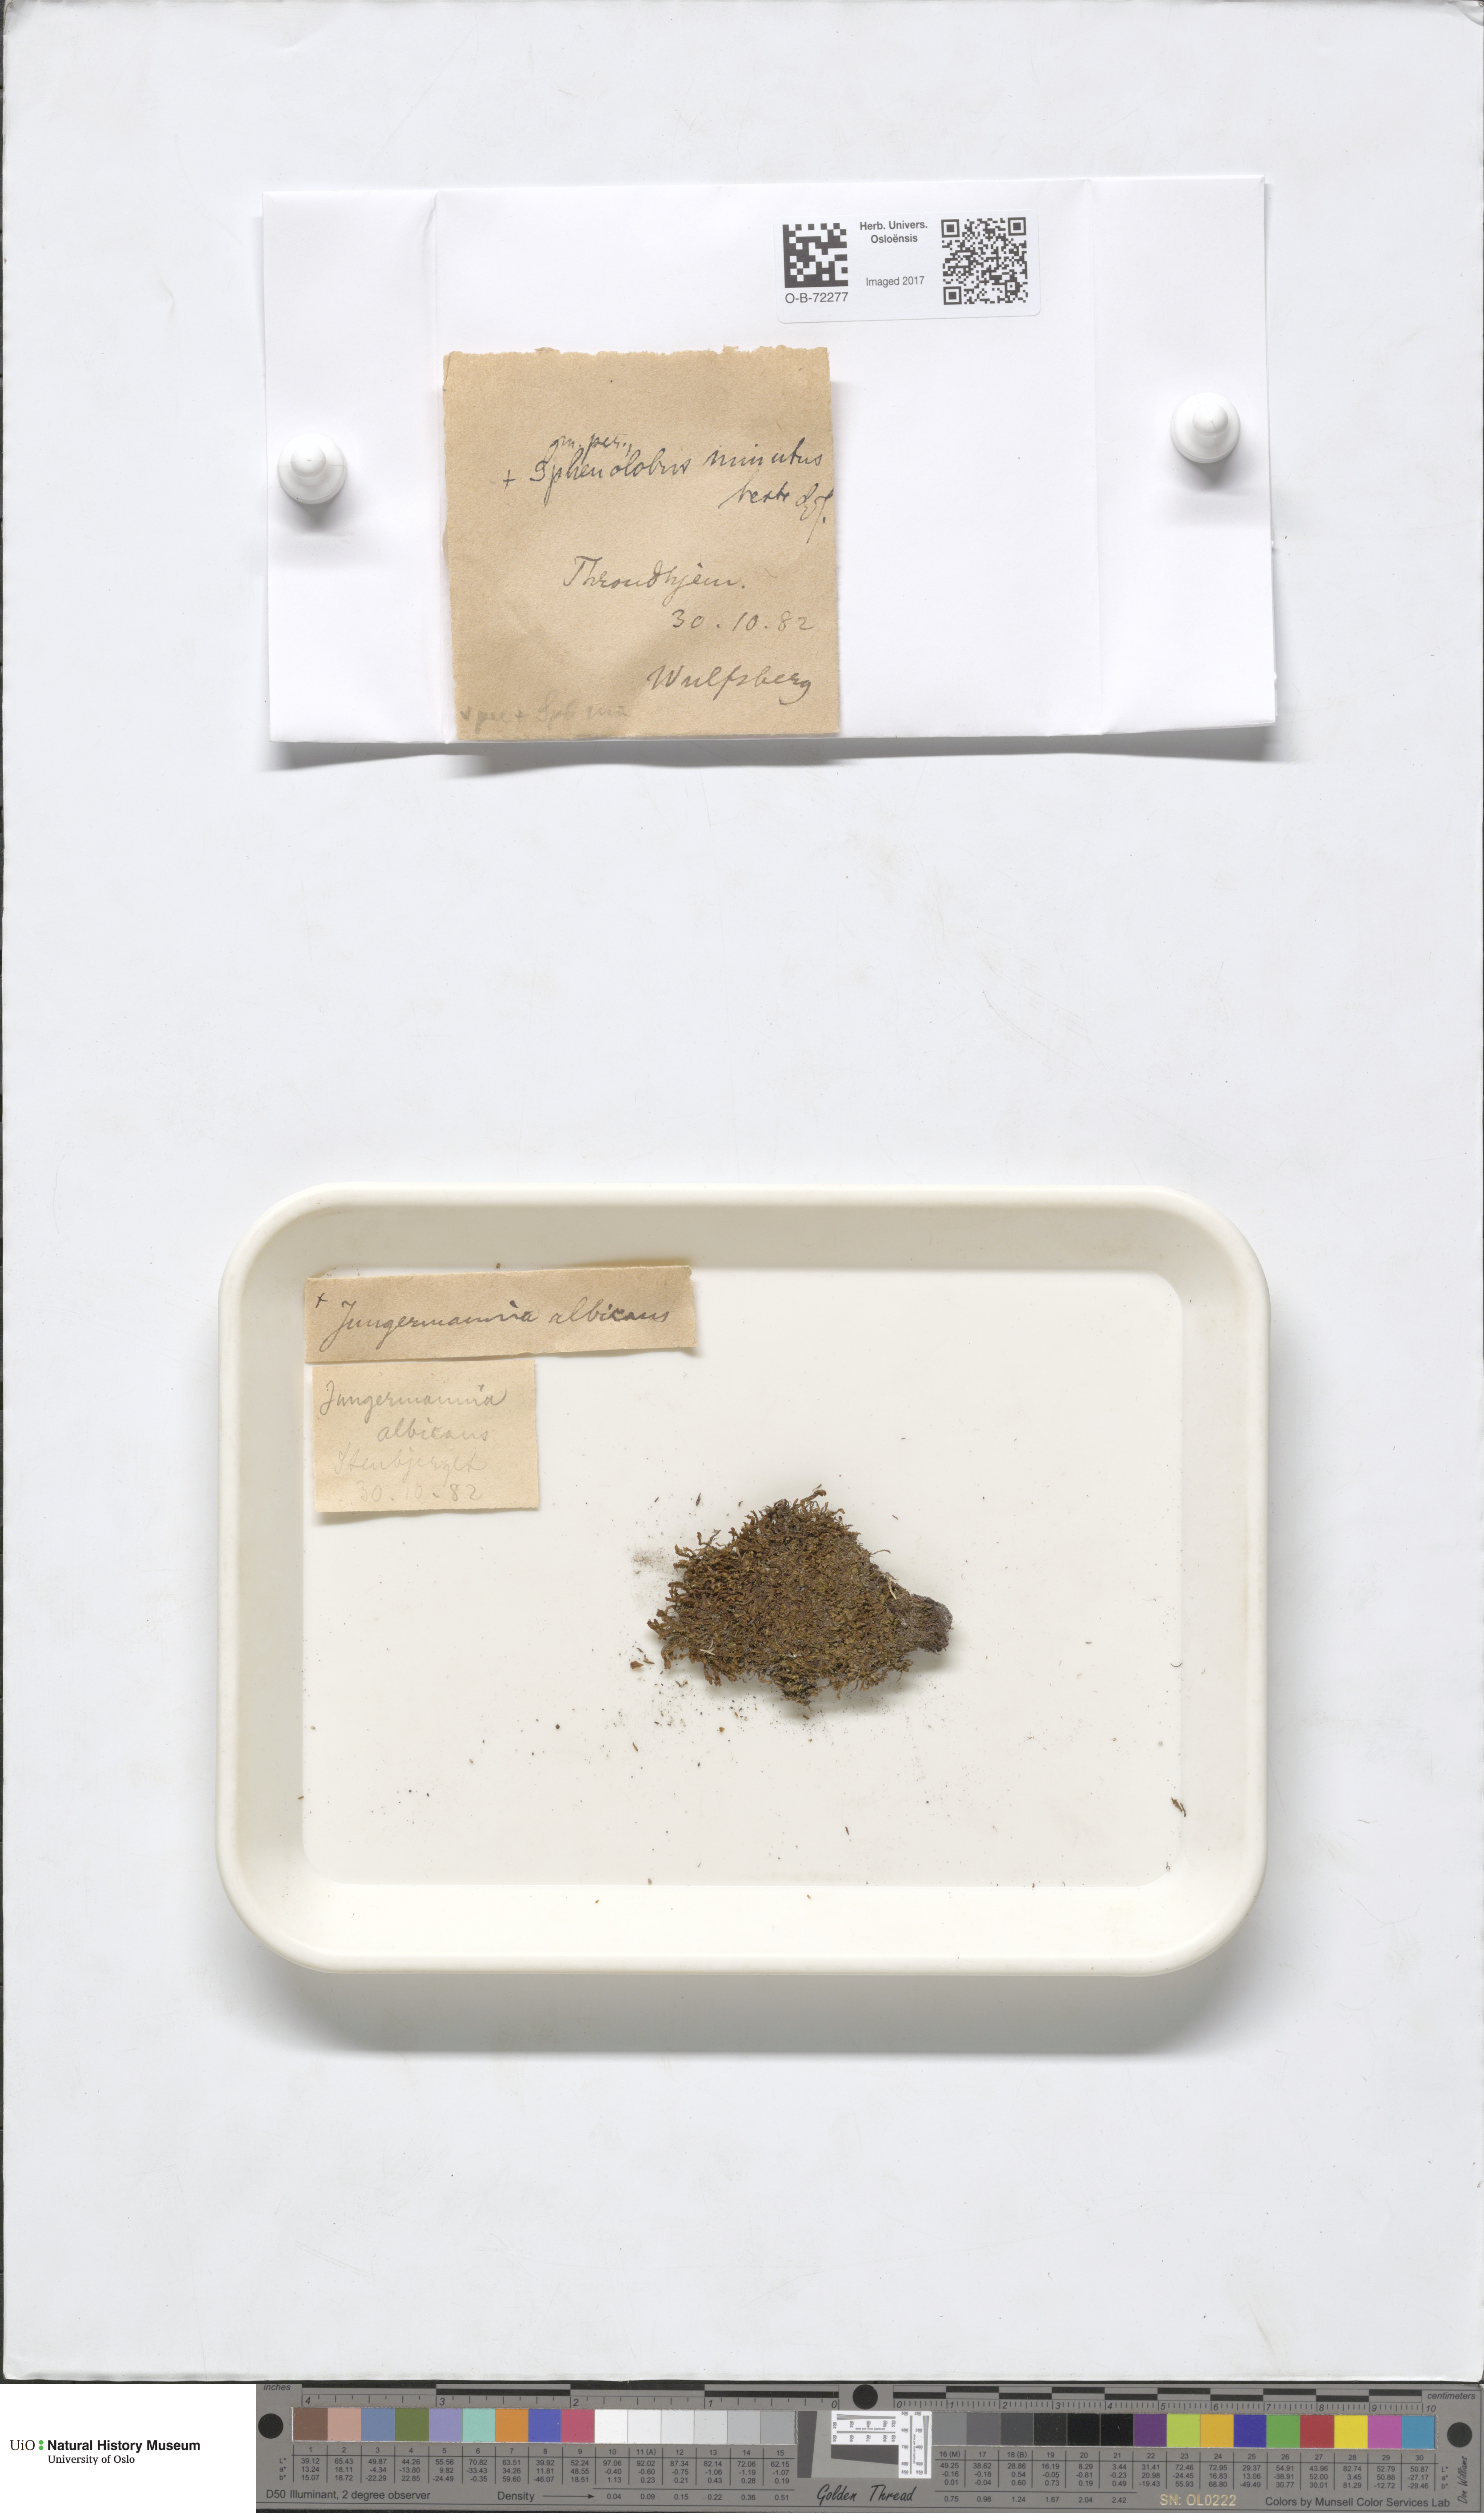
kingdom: Plantae
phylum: Marchantiophyta
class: Jungermanniopsida
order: Jungermanniales
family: Scapaniaceae
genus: Diplophyllum
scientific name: Diplophyllum albicans
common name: White earwort
